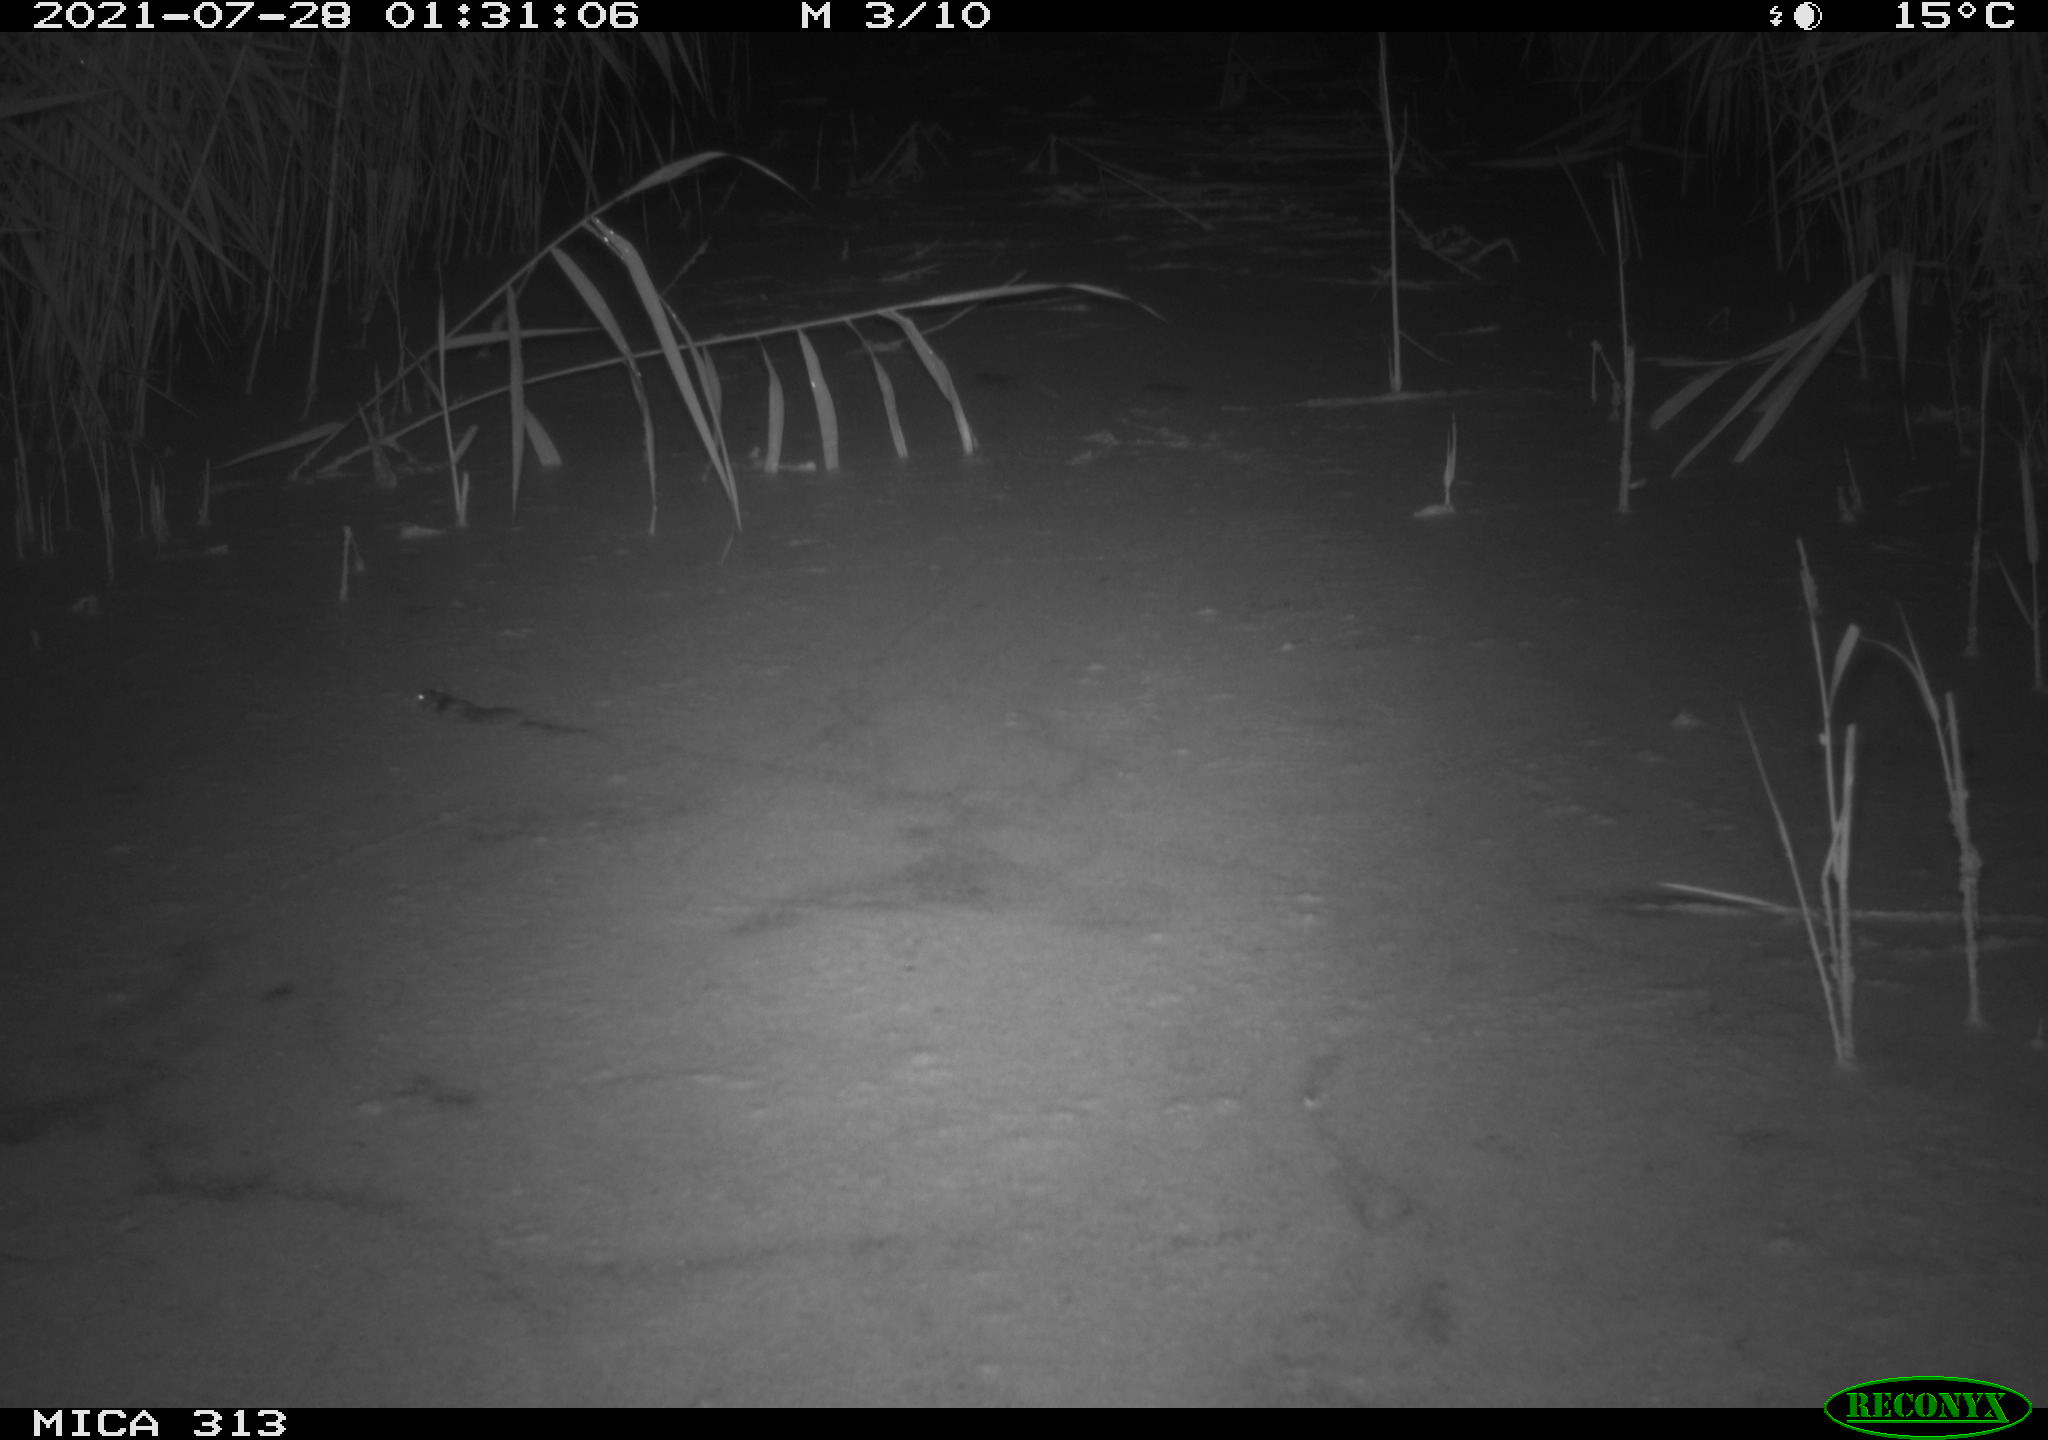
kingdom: Animalia
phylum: Chordata
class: Mammalia
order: Rodentia
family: Cricetidae
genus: Arvicola
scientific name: Arvicola amphibius
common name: European water vole
